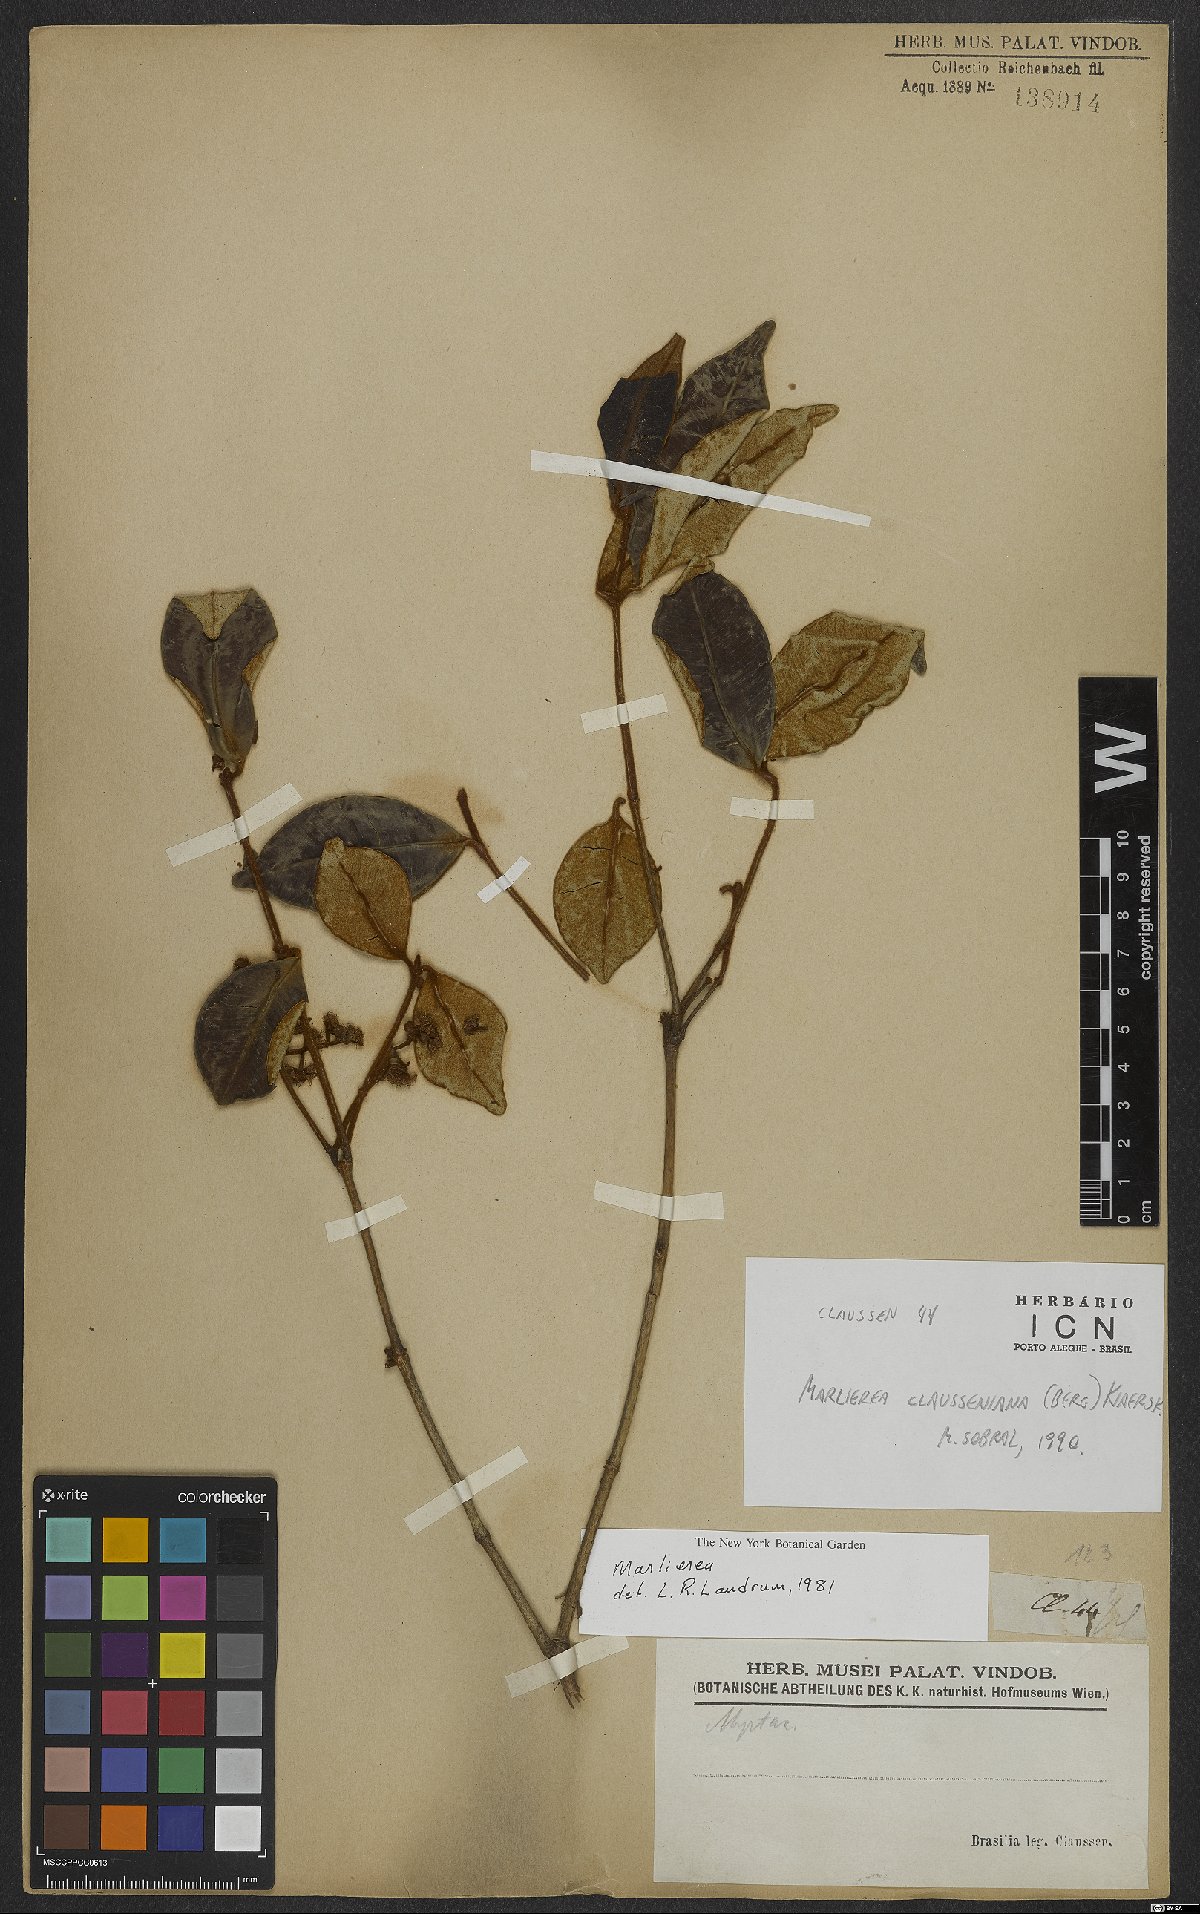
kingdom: Plantae
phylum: Tracheophyta
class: Magnoliopsida
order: Myrtales
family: Myrtaceae
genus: Marlierea
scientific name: Marlierea clausseniana
